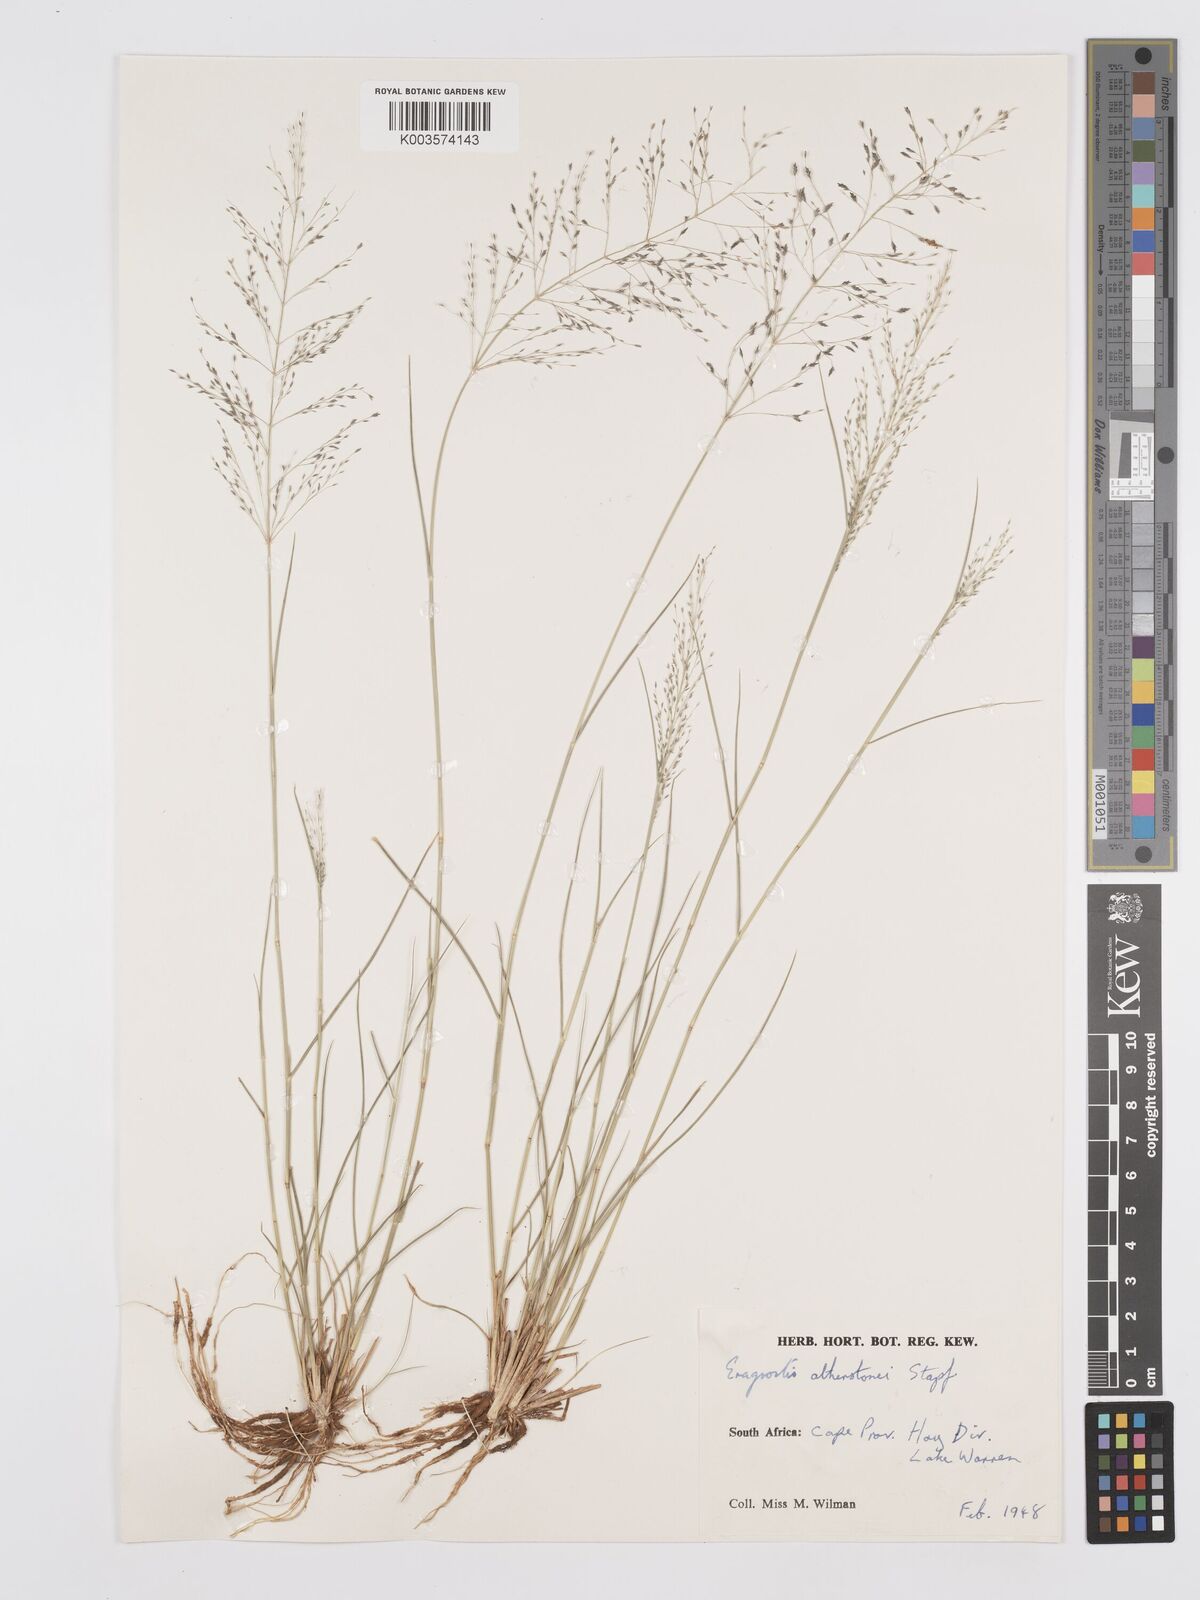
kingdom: Plantae
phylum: Tracheophyta
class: Liliopsida
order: Poales
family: Poaceae
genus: Eragrostis
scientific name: Eragrostis cylindriflora
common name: Cylinderflower lovegrass
